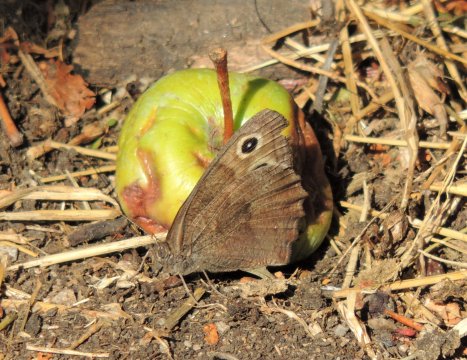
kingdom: Animalia
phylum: Arthropoda
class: Insecta
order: Lepidoptera
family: Nymphalidae
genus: Cercyonis
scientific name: Cercyonis pegala
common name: Common Wood-Nymph
